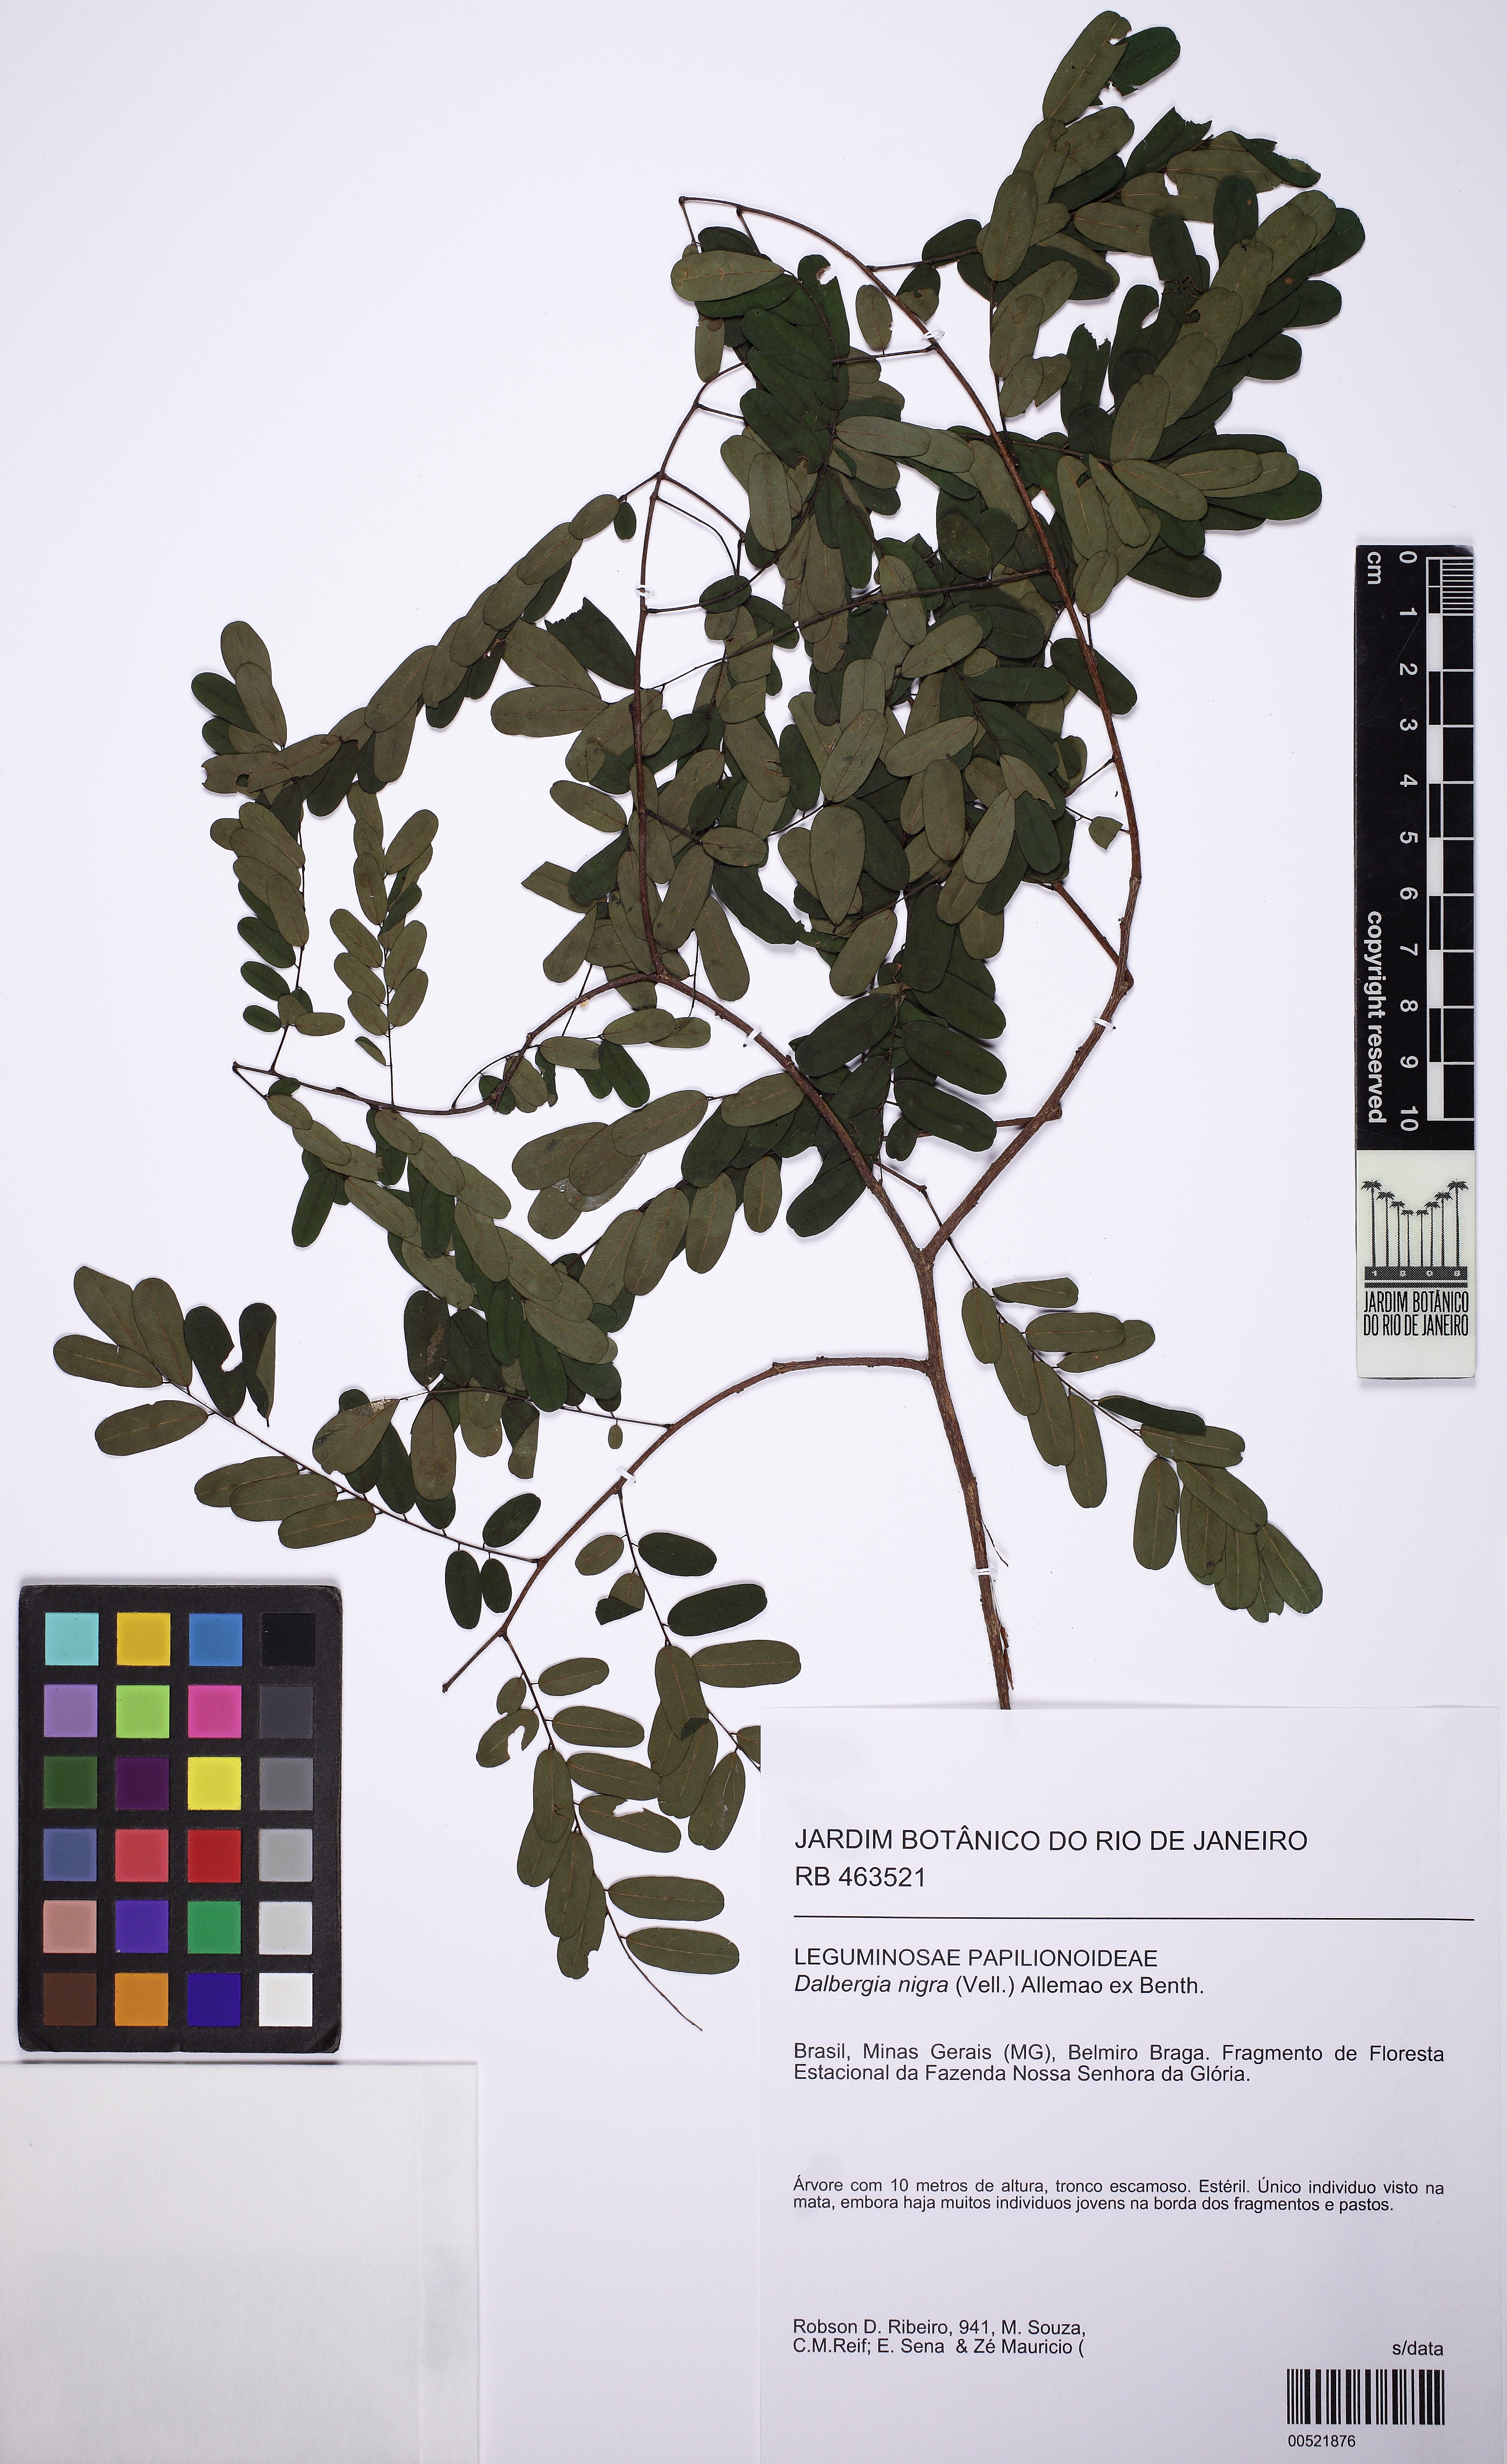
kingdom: Plantae
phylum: Tracheophyta
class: Magnoliopsida
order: Fabales
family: Fabaceae
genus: Dalbergia
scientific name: Dalbergia nigra
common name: Bahia rosewood
